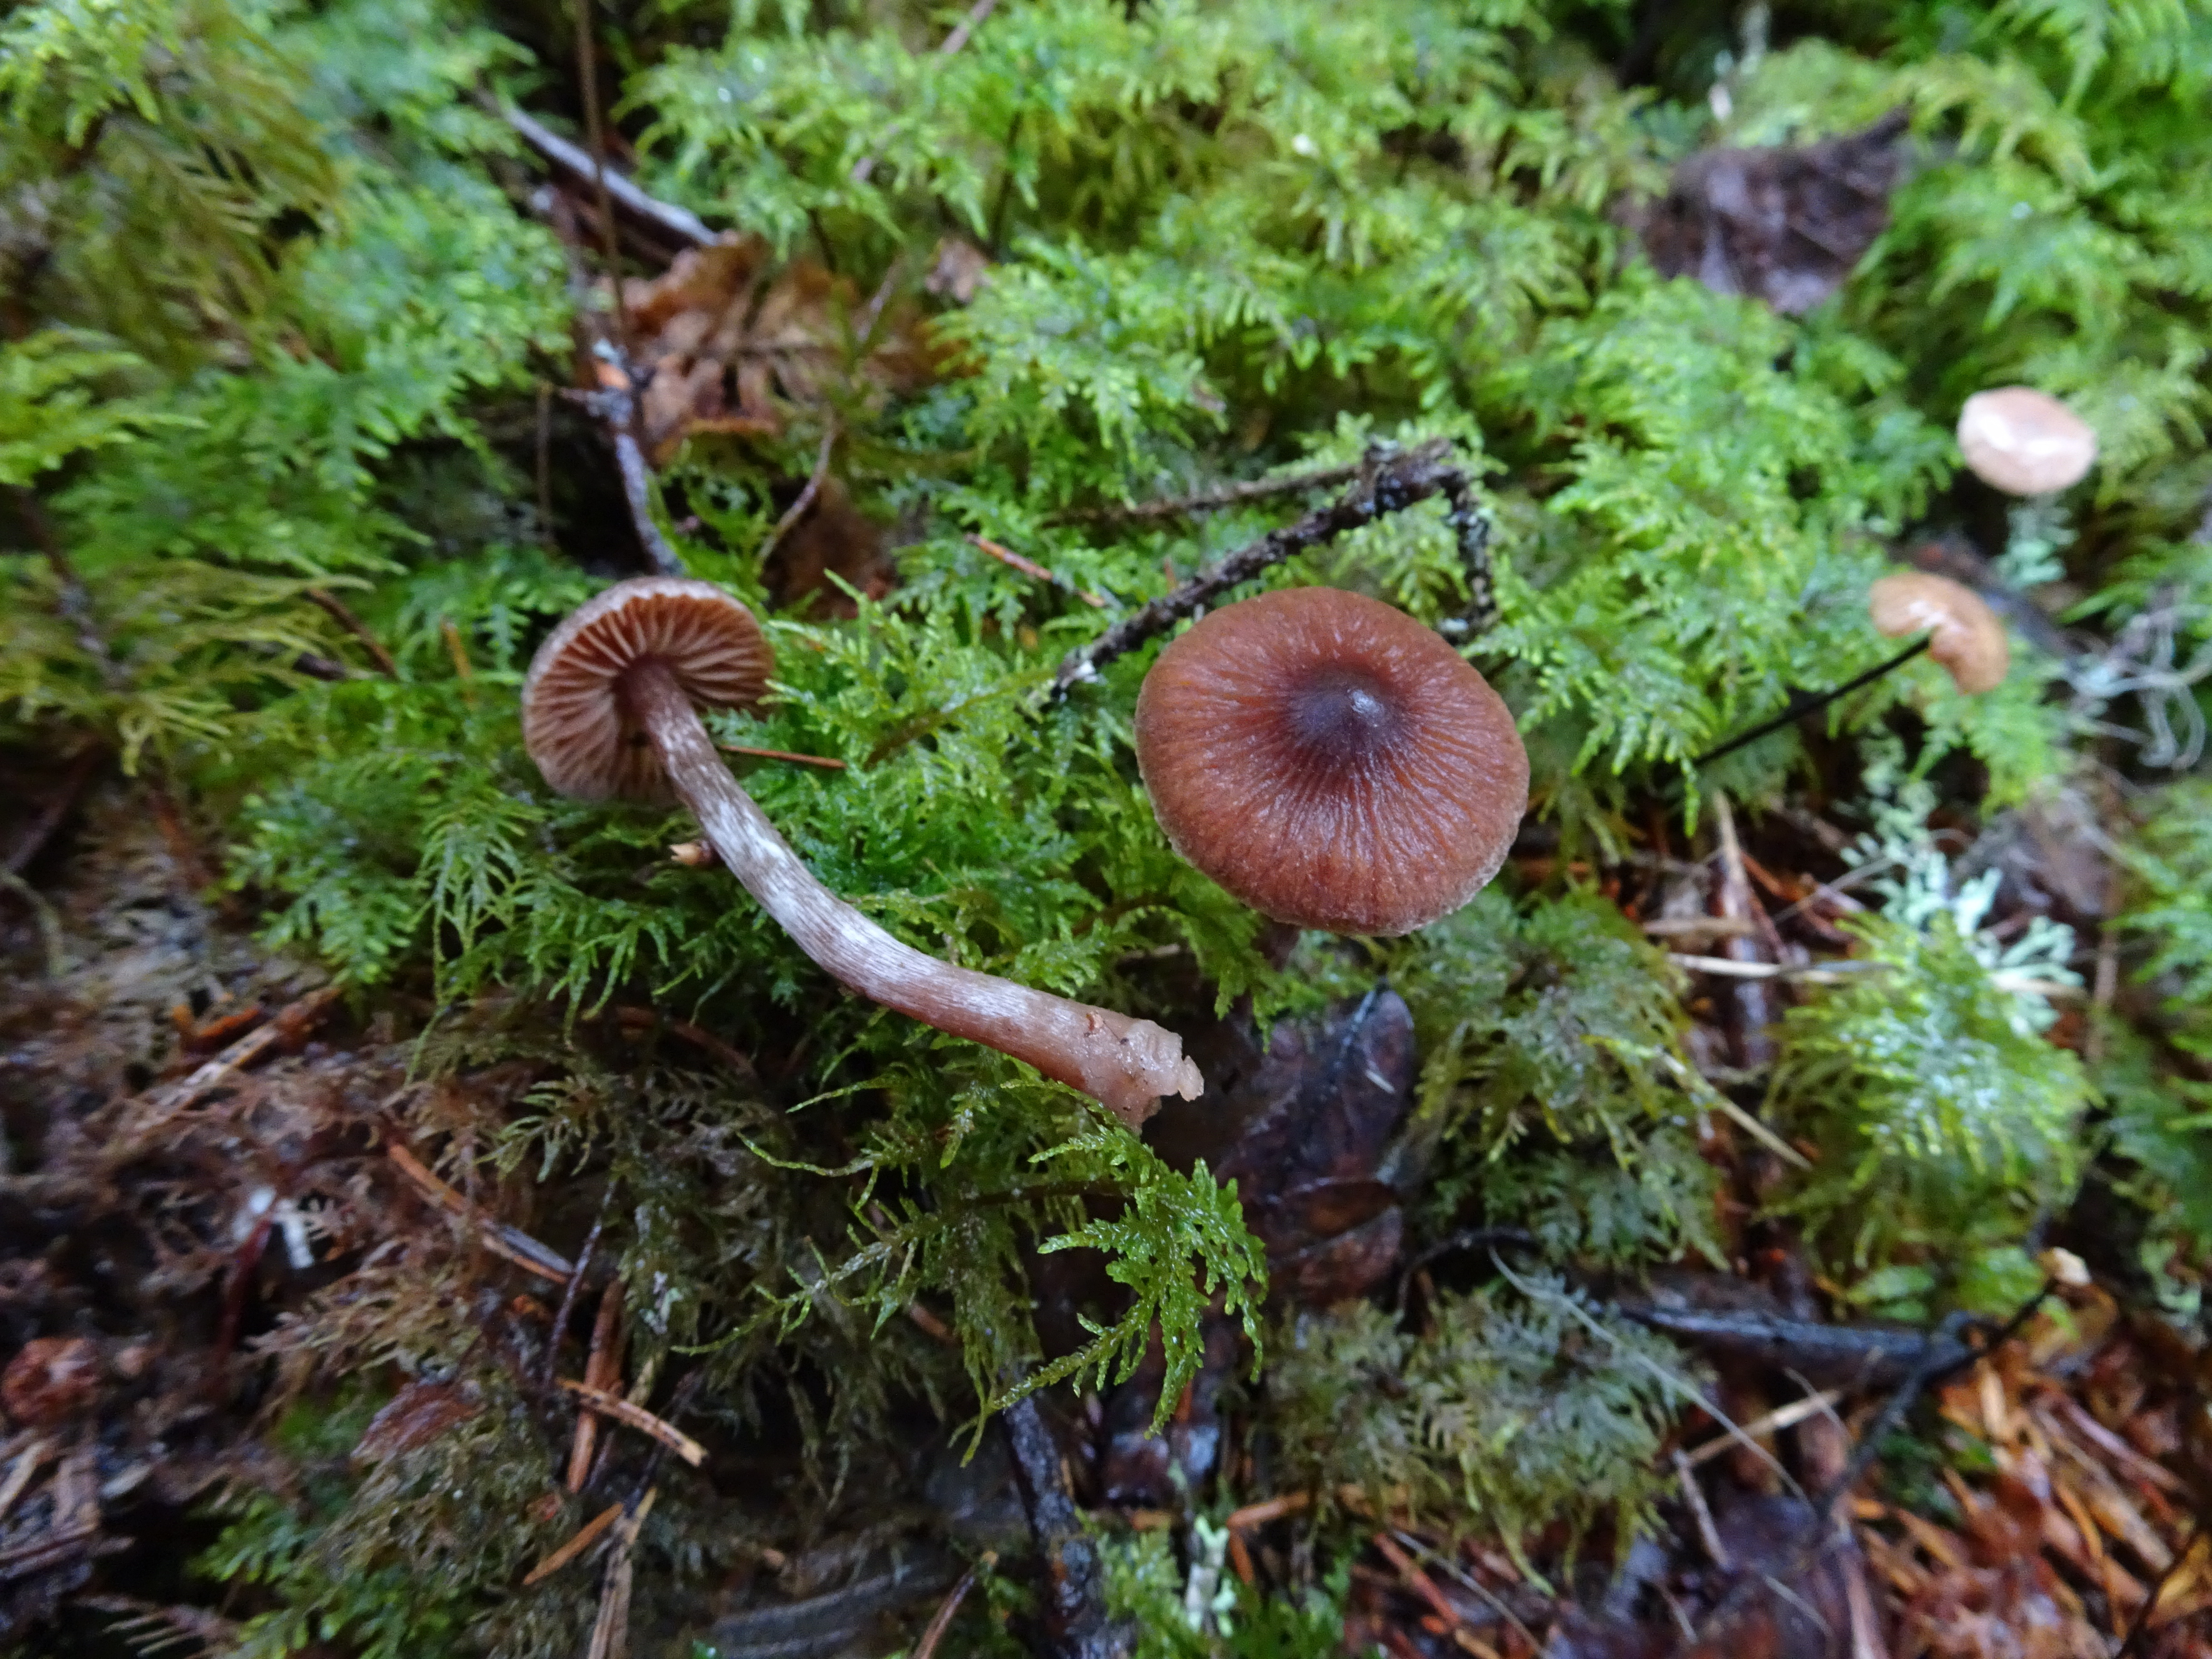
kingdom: Fungi
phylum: Basidiomycota
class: Agaricomycetes
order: Agaricales
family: Cortinariaceae
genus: Cortinarius
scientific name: Cortinarius casimirii
